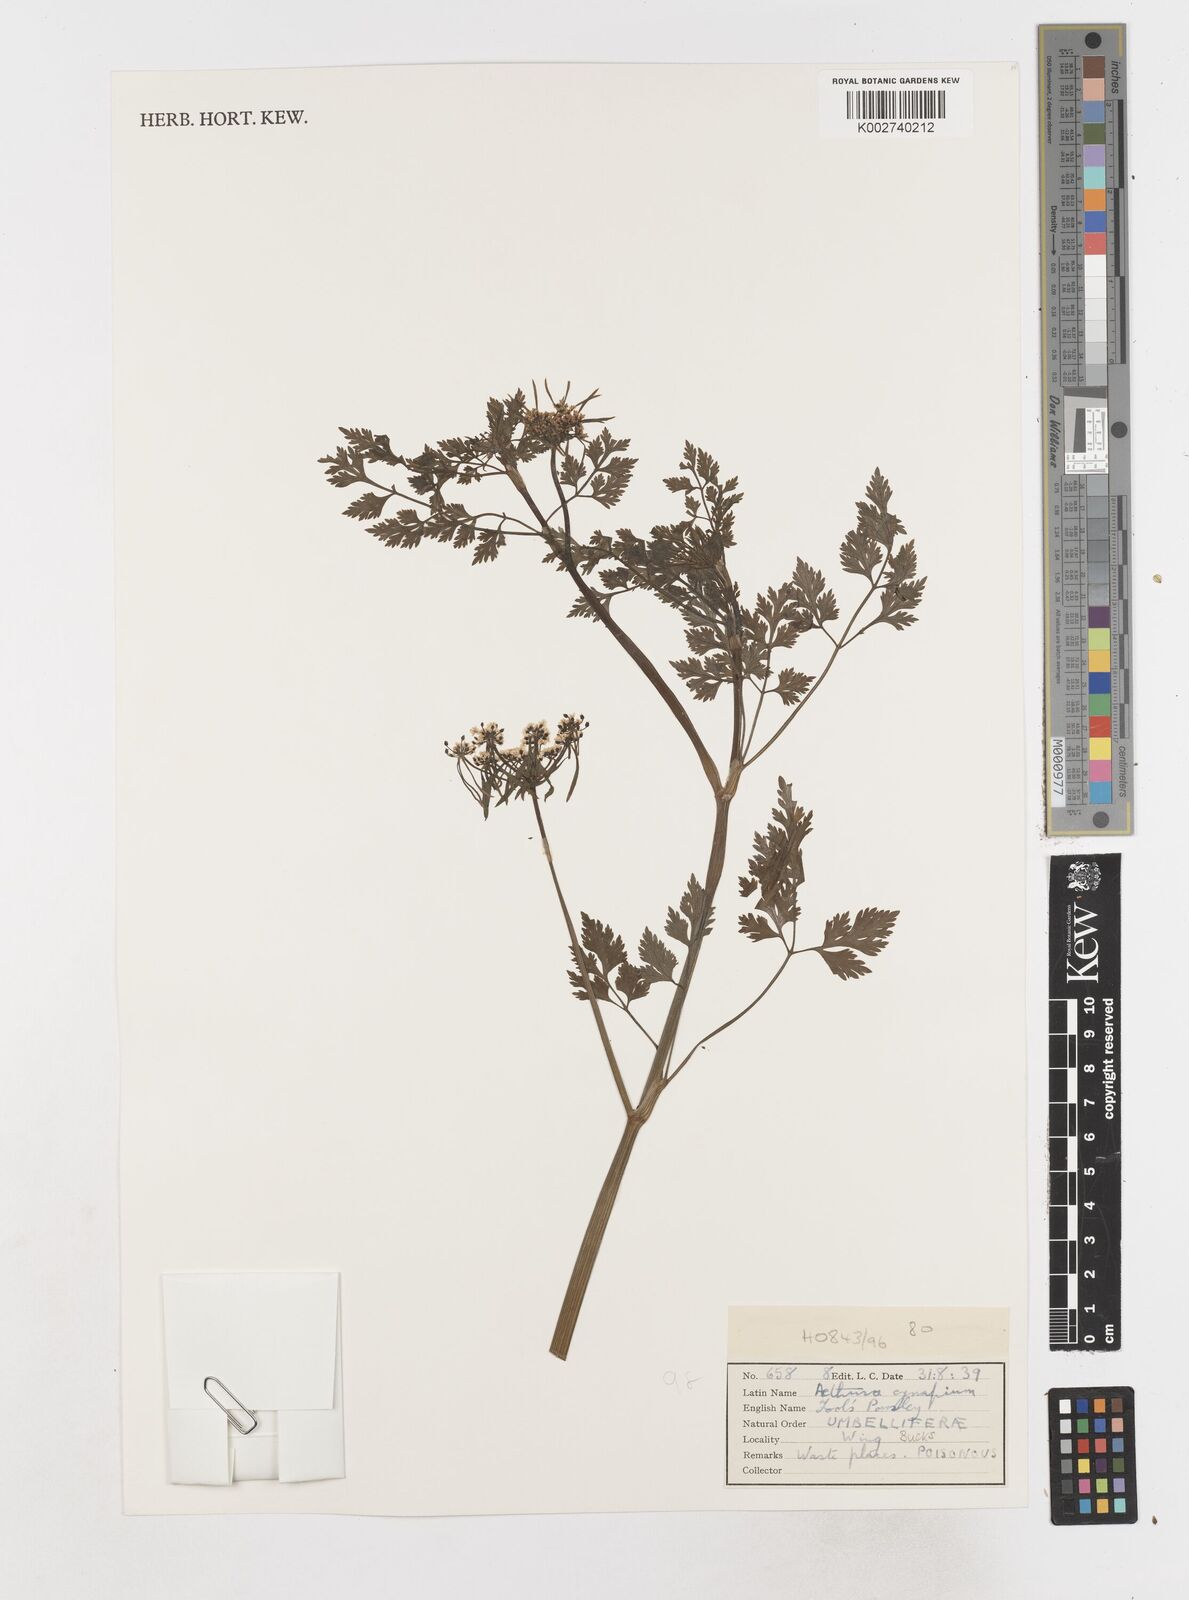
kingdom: Plantae
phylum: Tracheophyta
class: Magnoliopsida
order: Apiales
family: Apiaceae
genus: Aethusa
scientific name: Aethusa cynapium
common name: Fool's parsley
